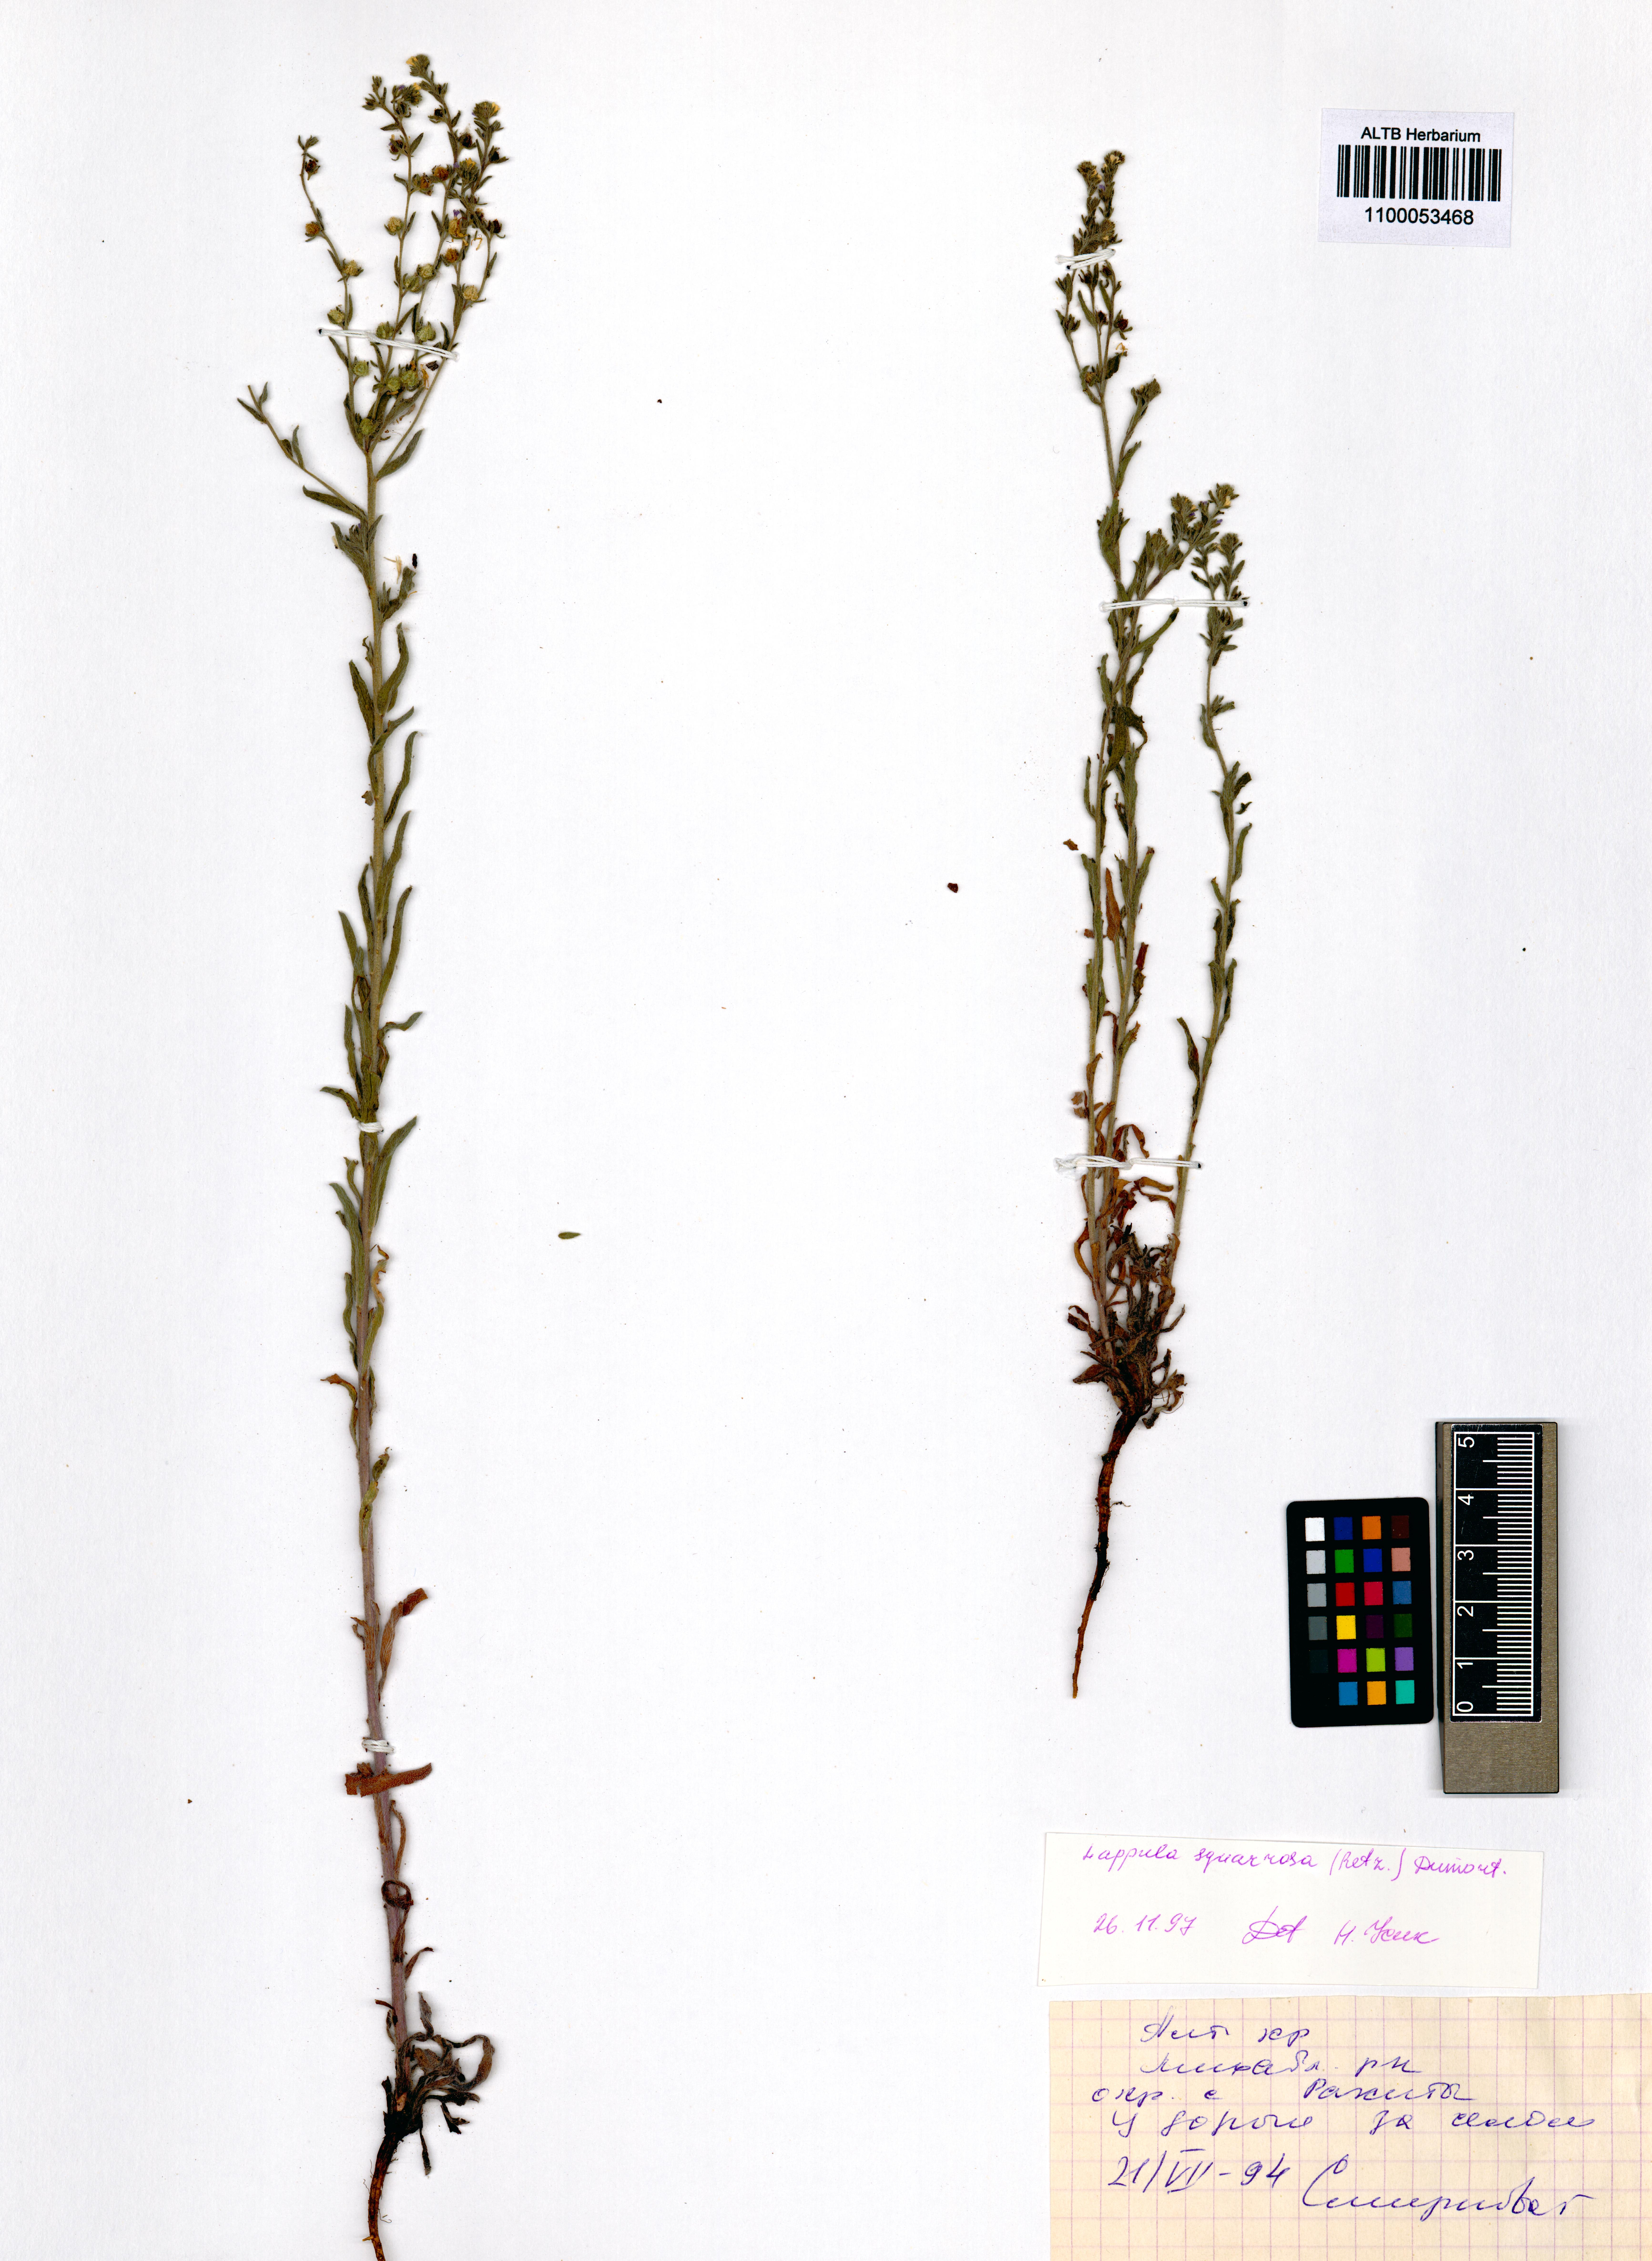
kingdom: Plantae
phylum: Tracheophyta
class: Magnoliopsida
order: Boraginales
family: Boraginaceae
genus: Lappula
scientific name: Lappula squarrosa
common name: European stickseed
